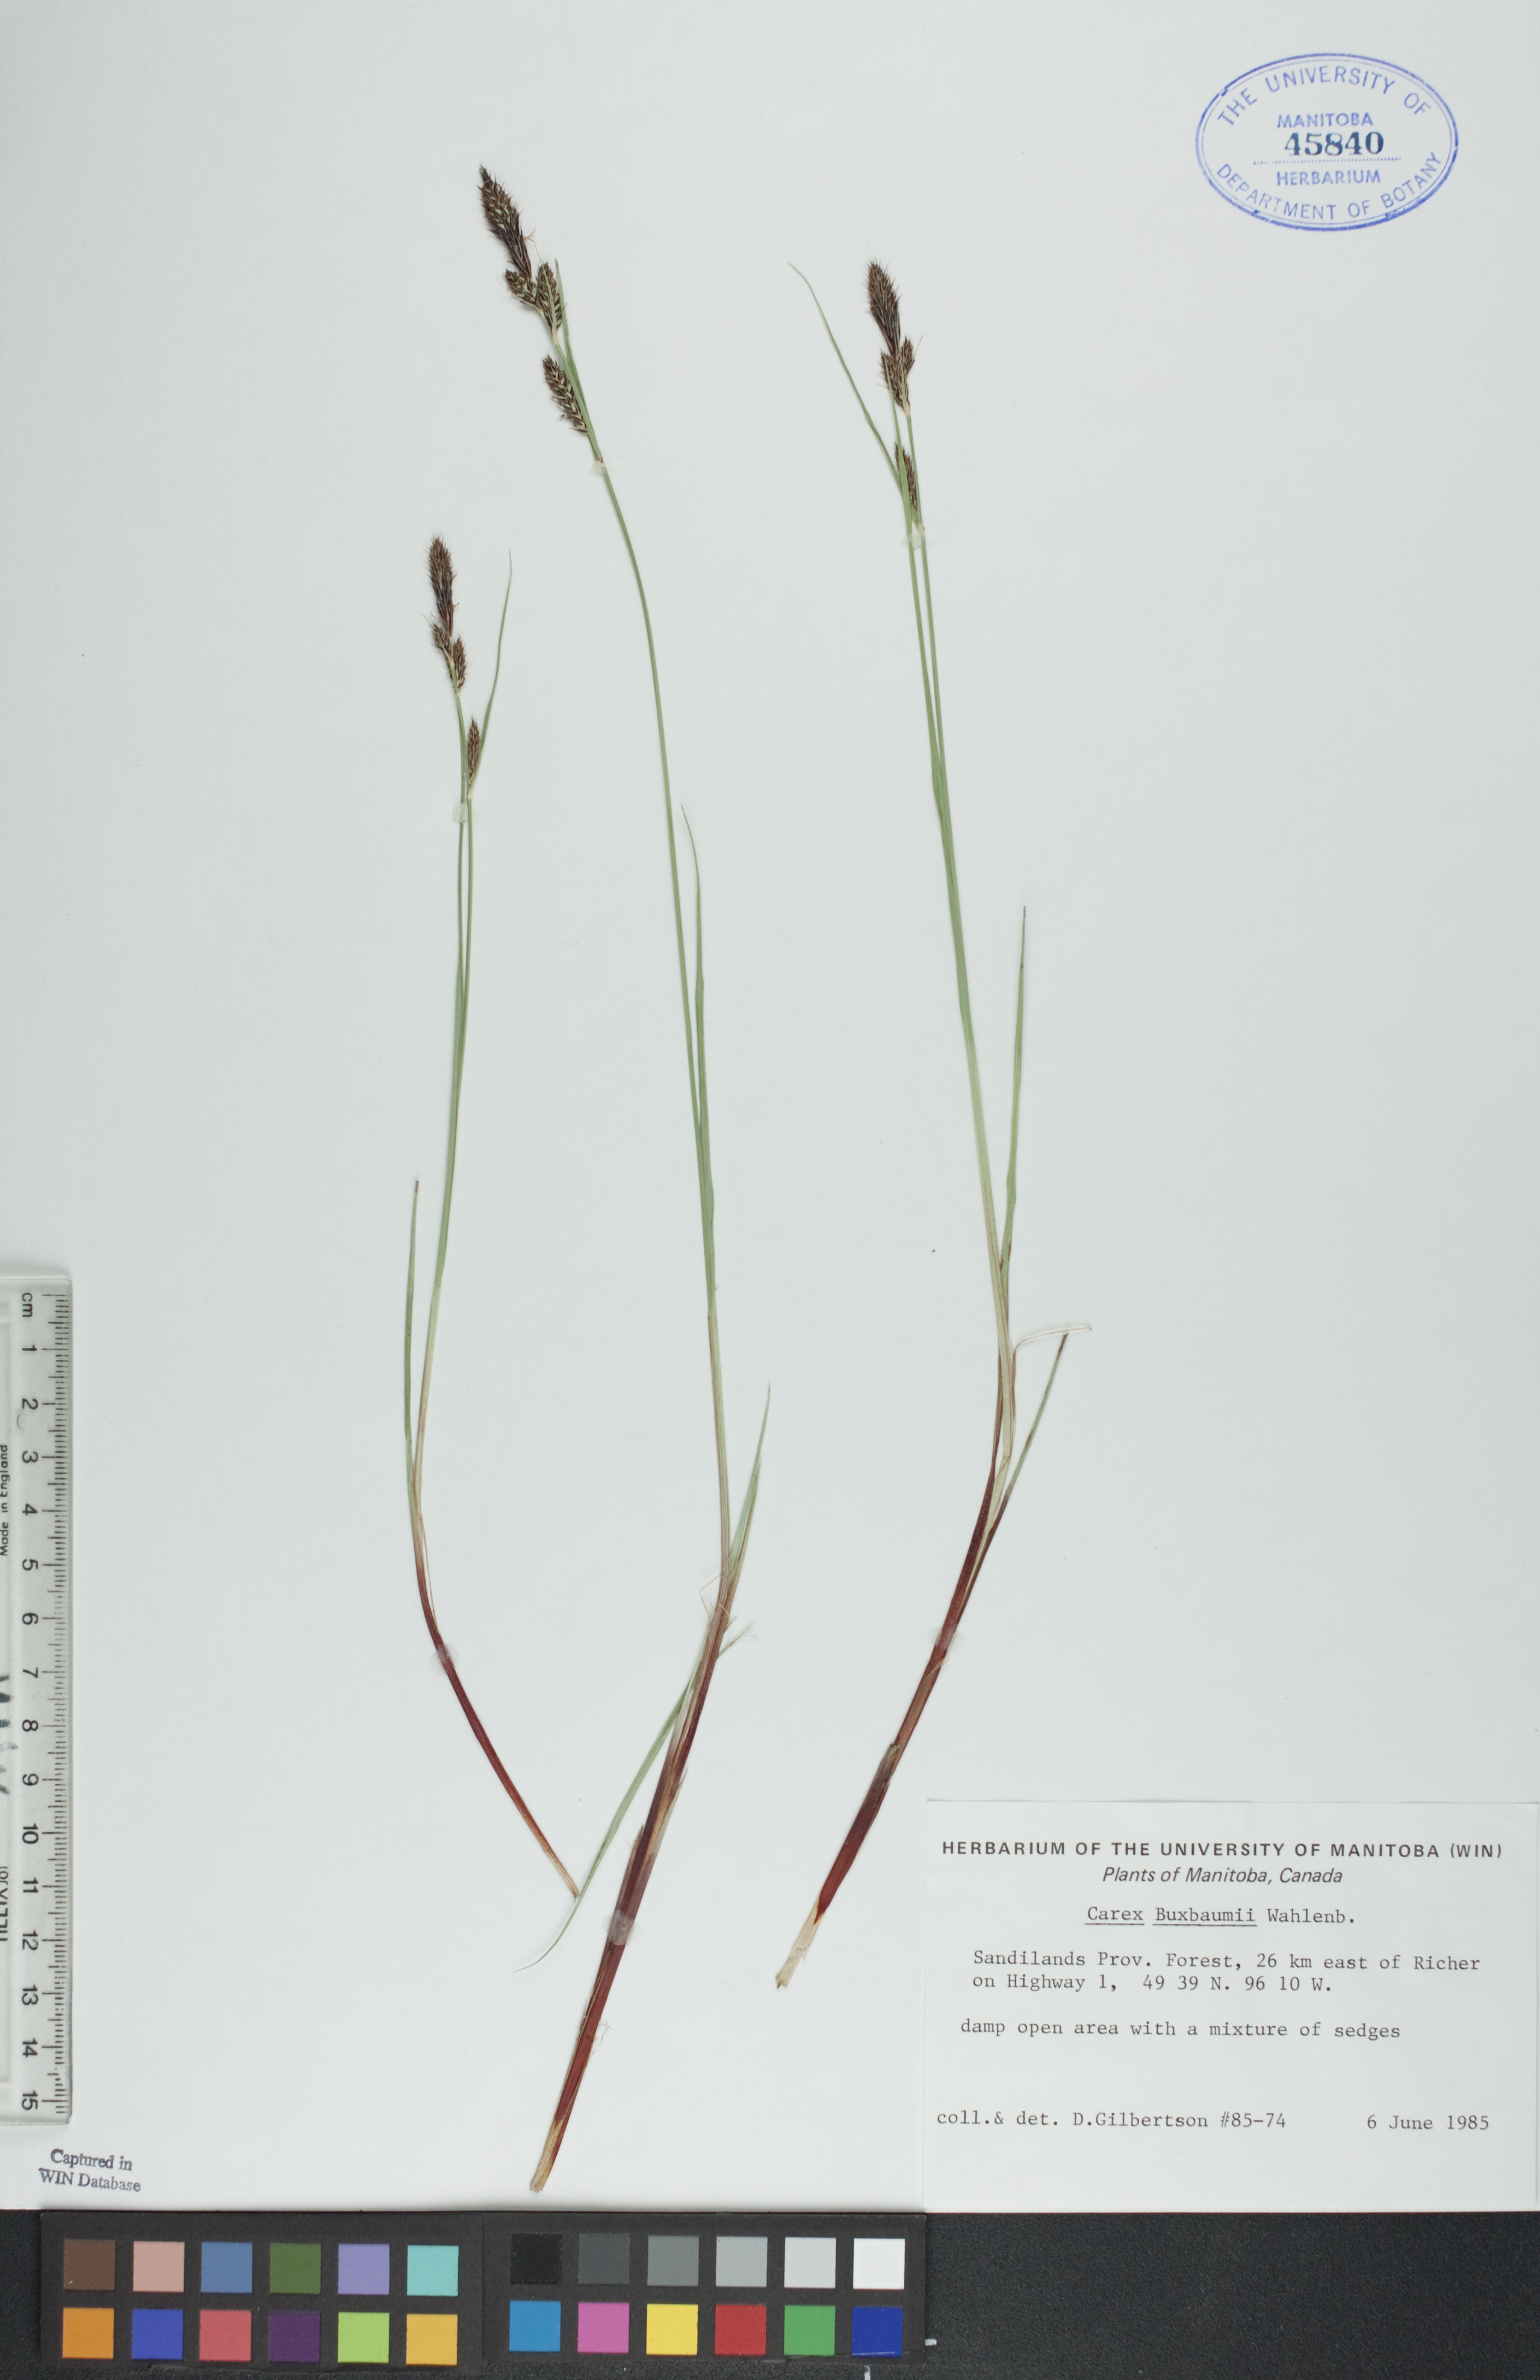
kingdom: Plantae
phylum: Tracheophyta
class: Liliopsida
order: Poales
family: Cyperaceae
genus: Carex
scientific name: Carex buxbaumii
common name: Club sedge
